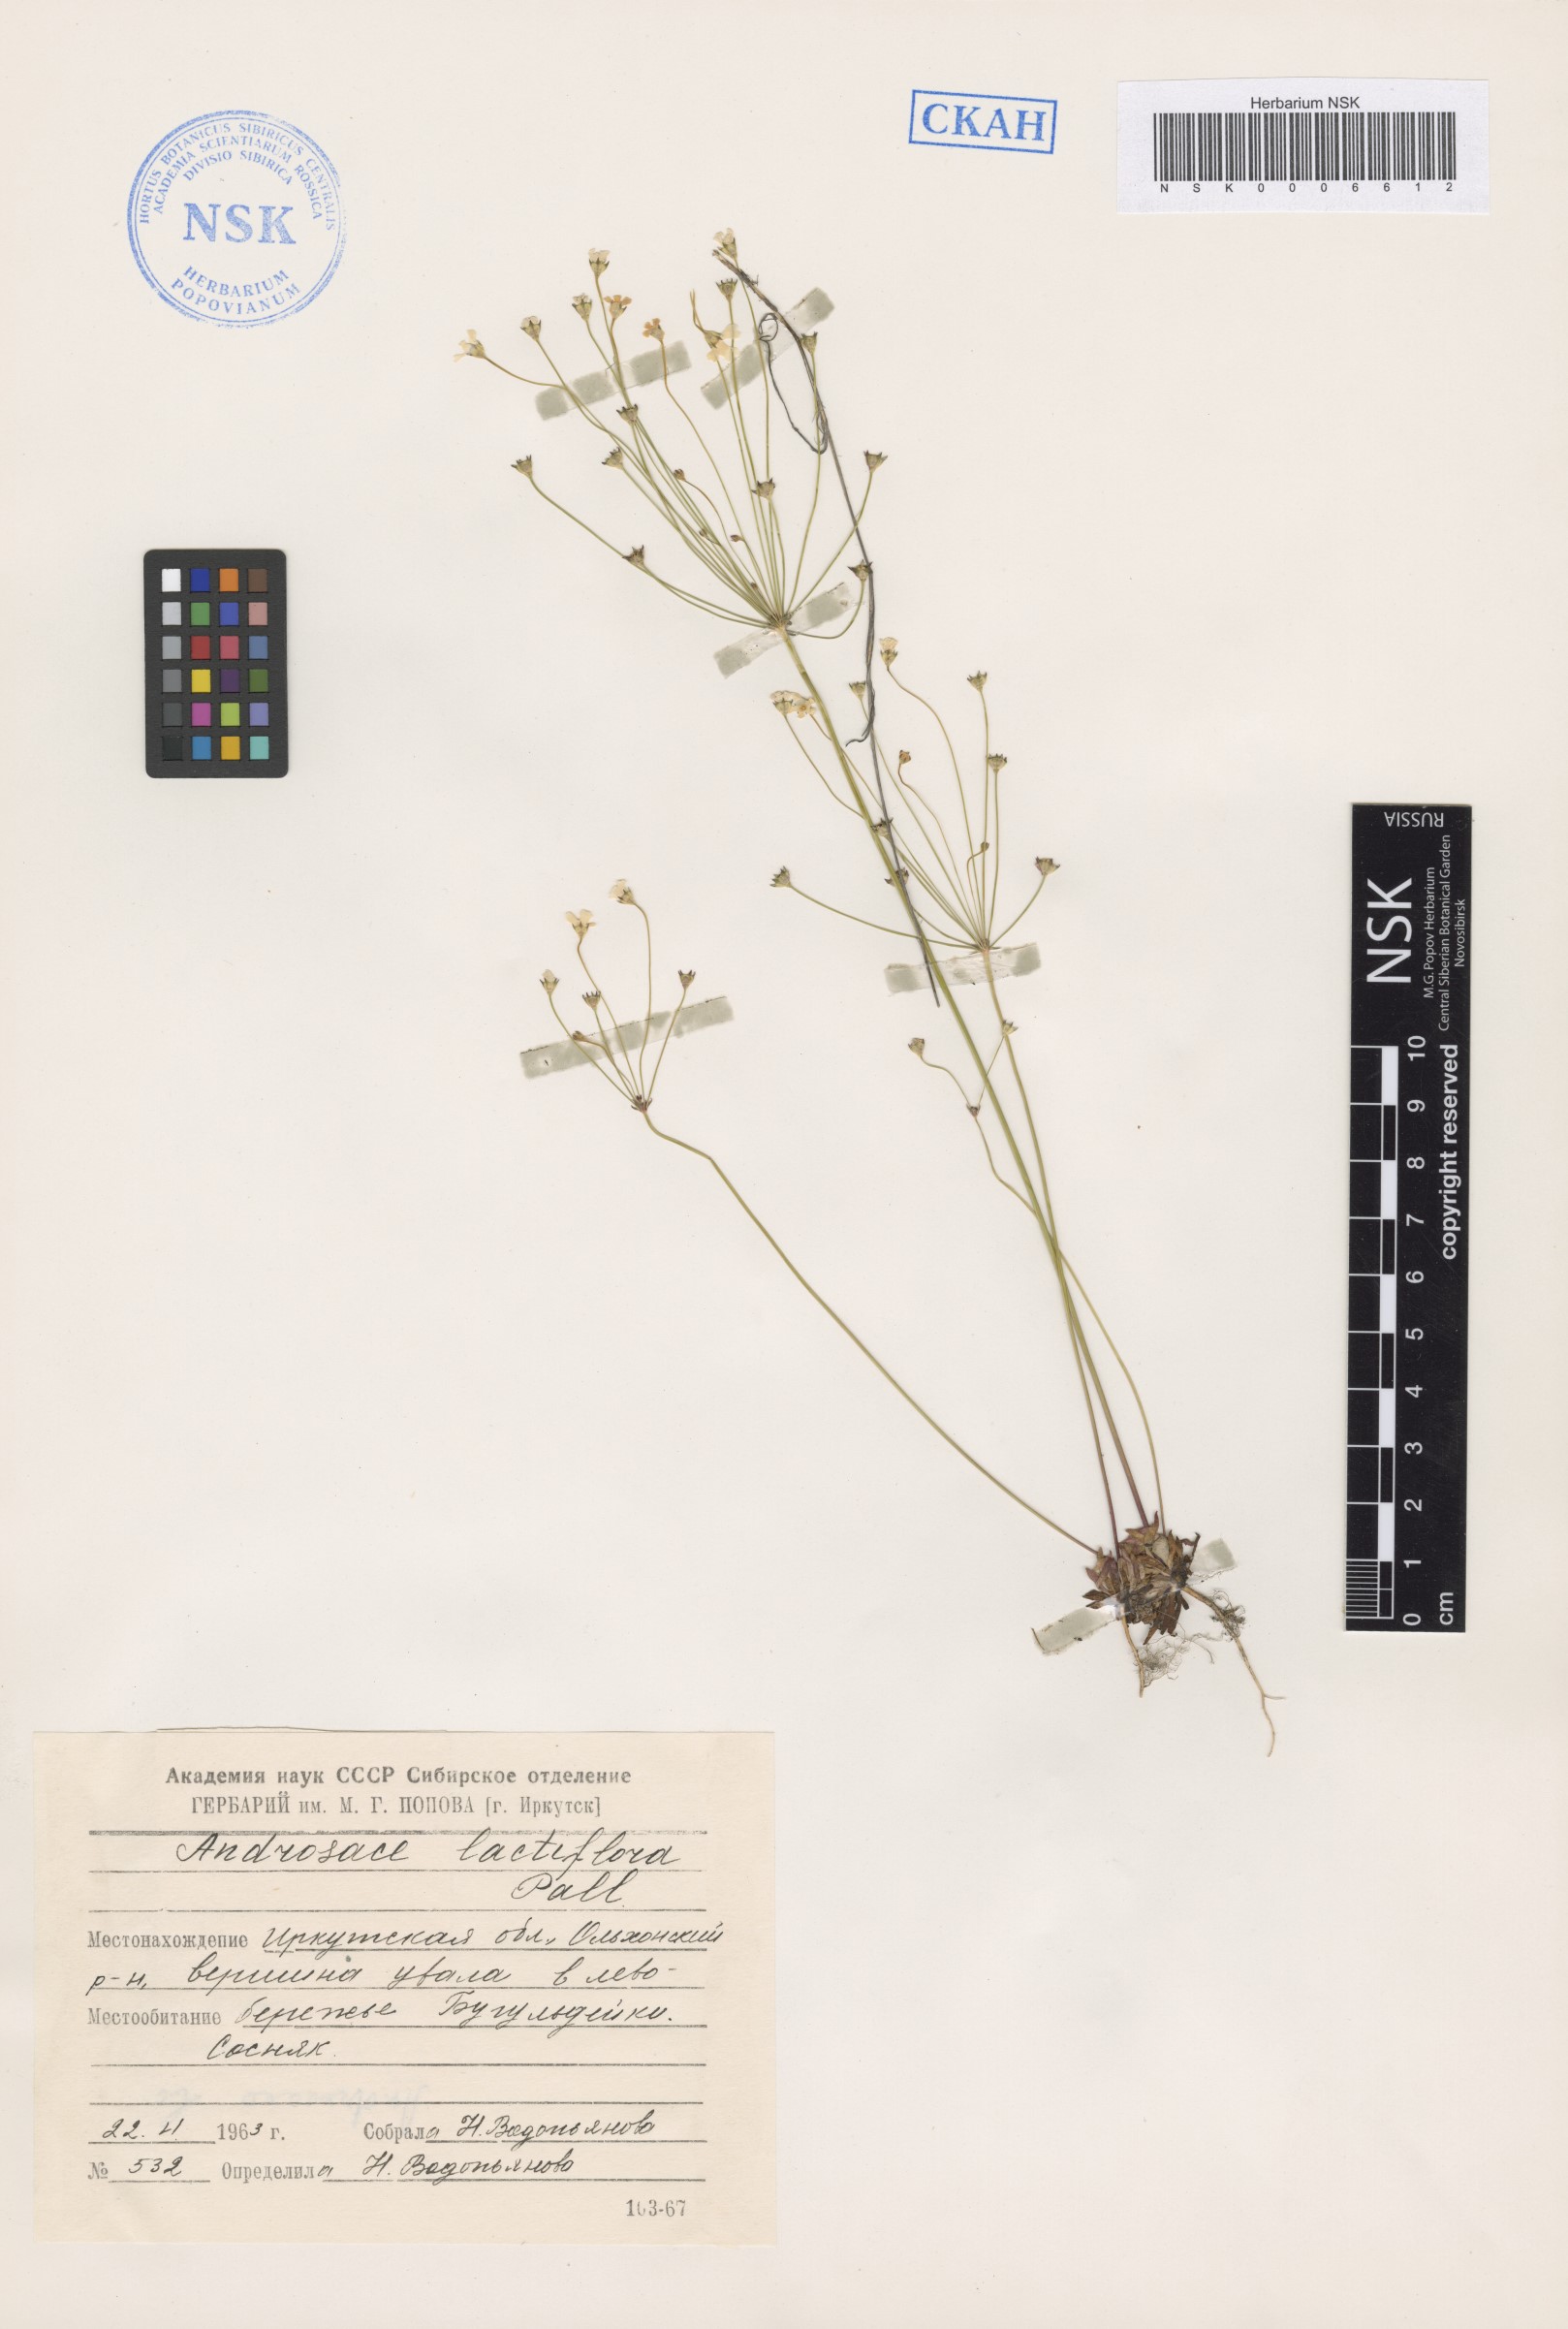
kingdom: Plantae
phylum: Tracheophyta
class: Magnoliopsida
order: Ericales
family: Primulaceae
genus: Androsace
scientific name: Androsace lactiflora
